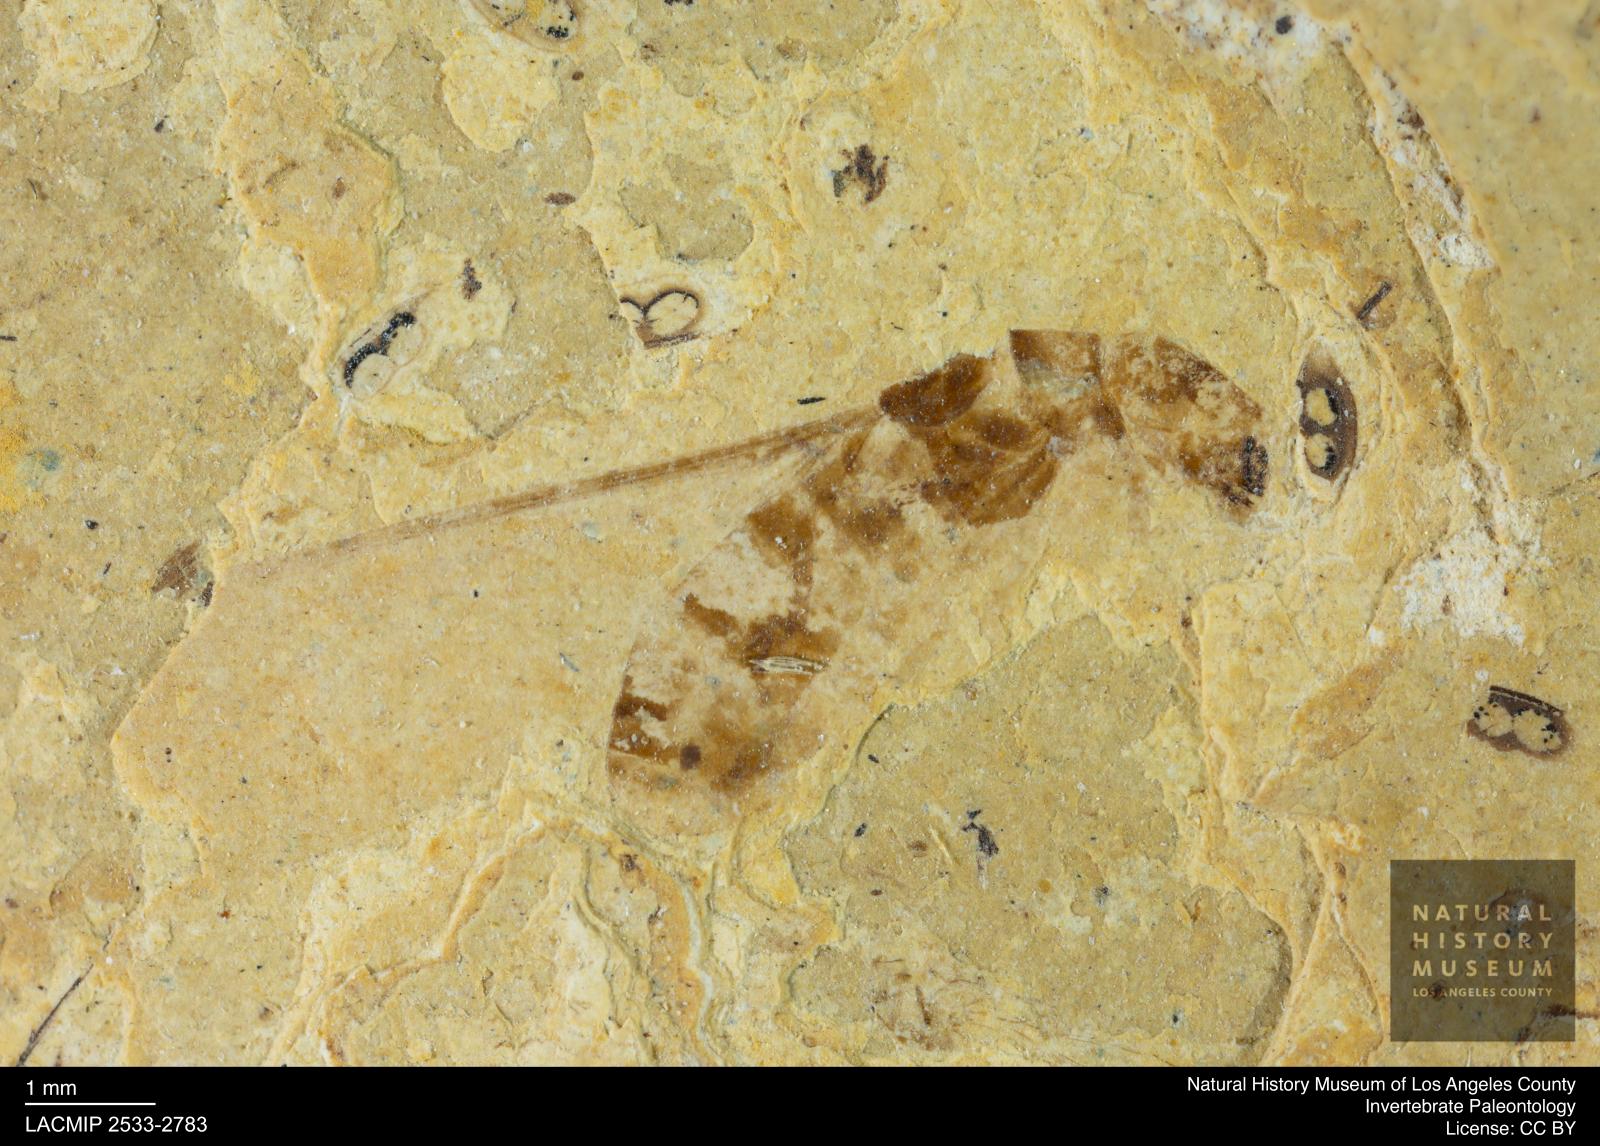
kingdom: Animalia
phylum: Arthropoda
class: Insecta
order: Blattodea
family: Kalotermitidae
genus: Kalotermes
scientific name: Kalotermes rhenanus
